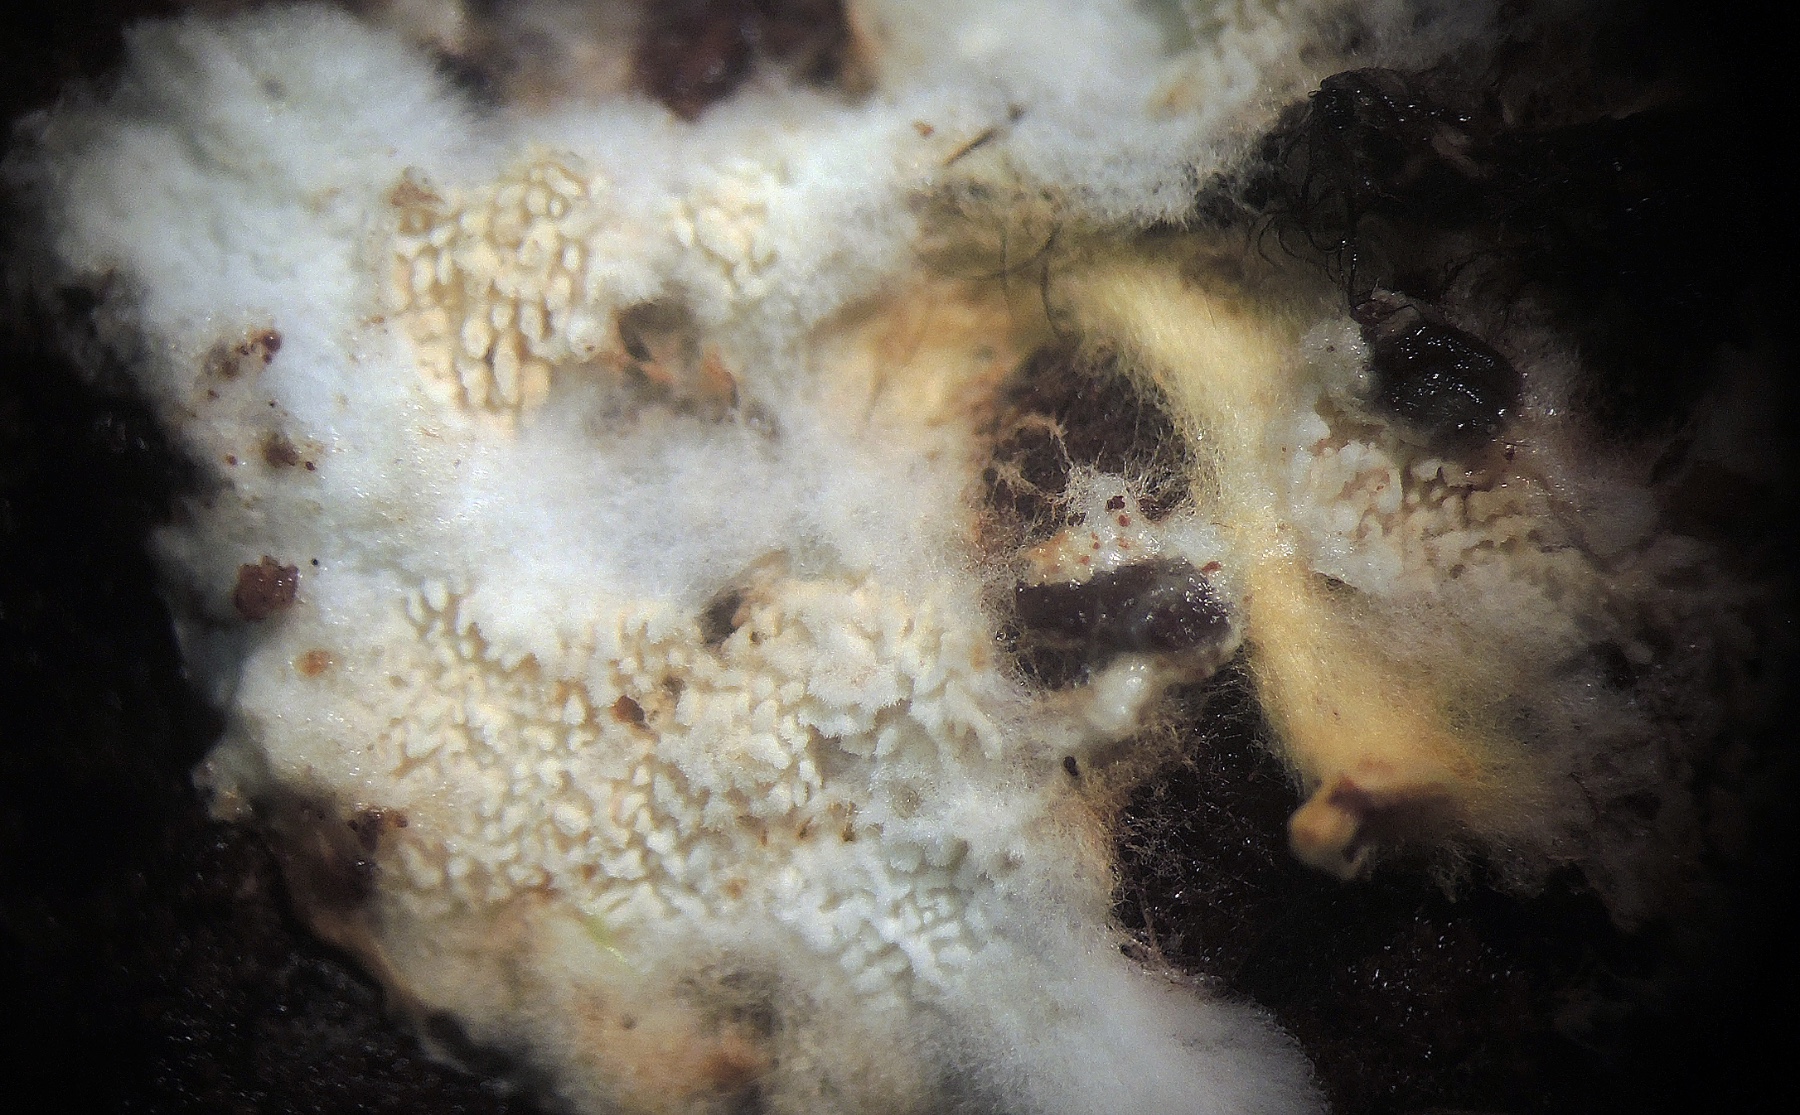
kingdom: Fungi
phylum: Basidiomycota
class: Agaricomycetes
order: Cantharellales
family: Hydnaceae
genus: Sistotrema
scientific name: Sistotrema muscicola
